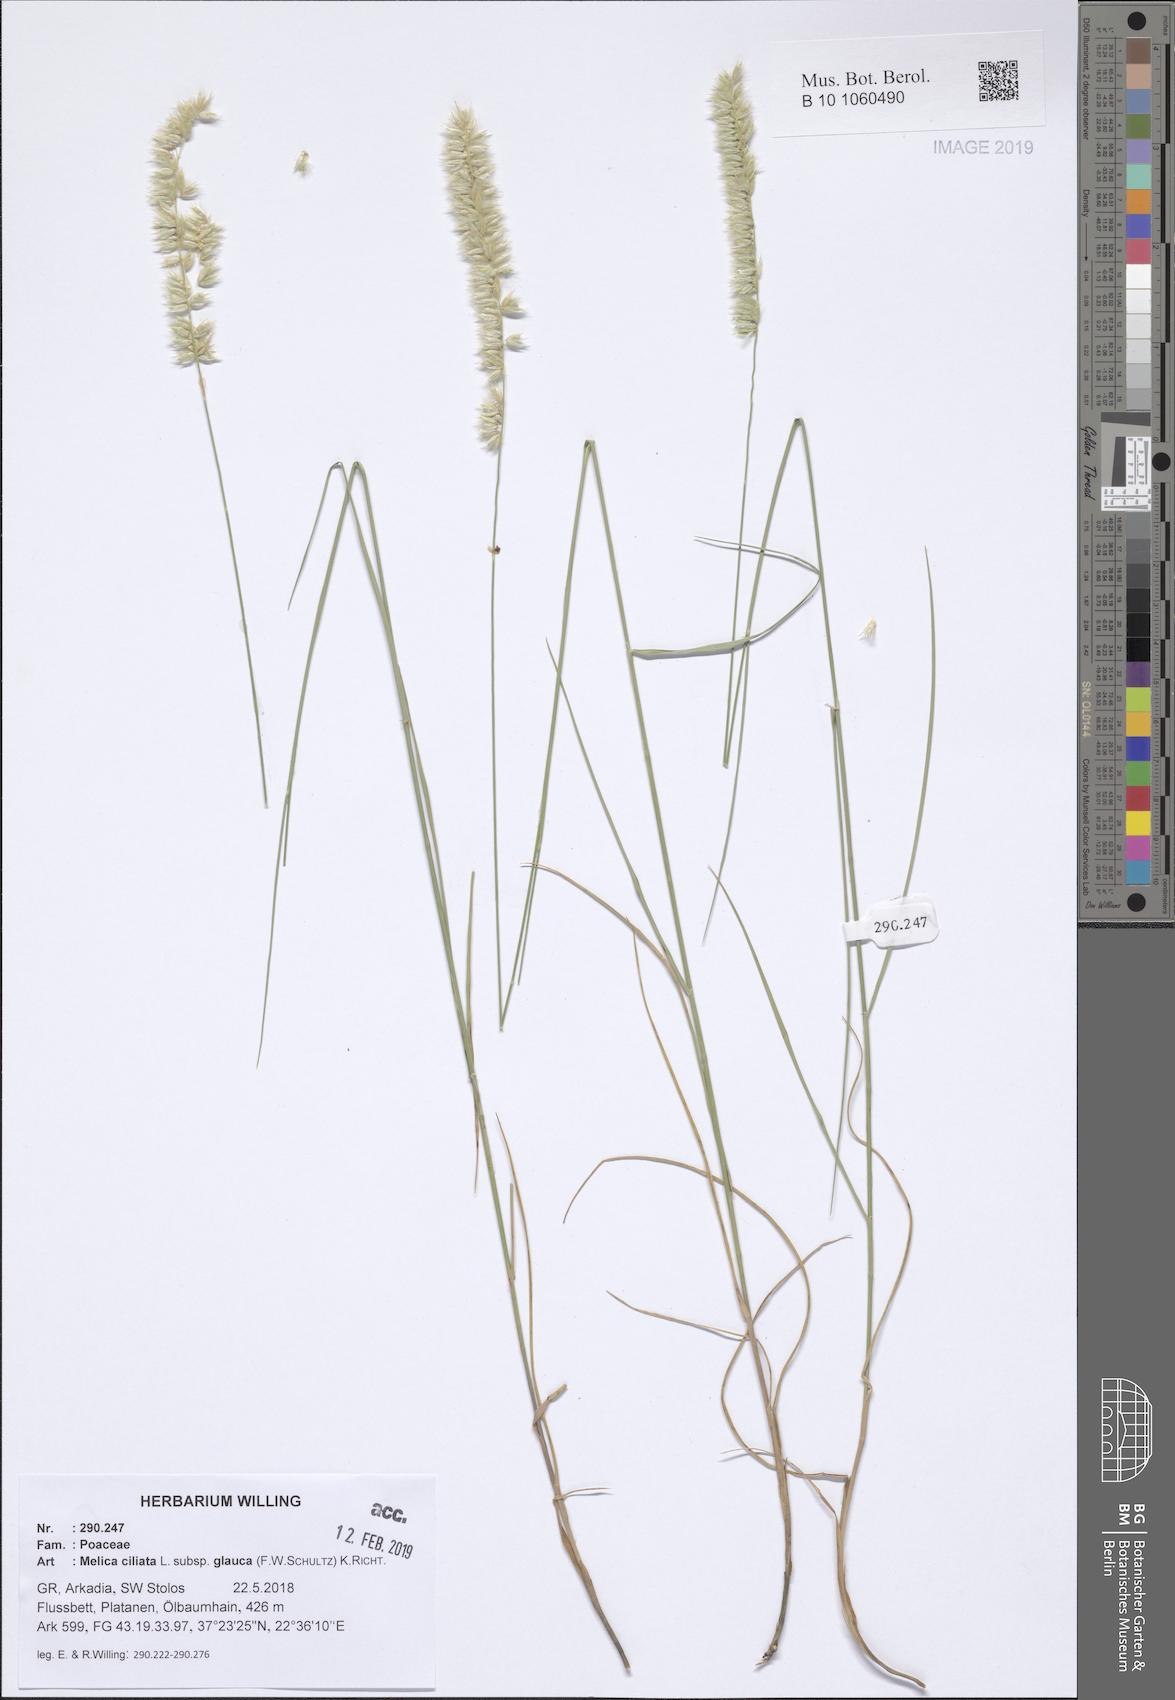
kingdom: Plantae
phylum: Tracheophyta
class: Liliopsida
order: Poales
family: Poaceae
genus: Melica
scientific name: Melica ciliata
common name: Hairy melicgrass
